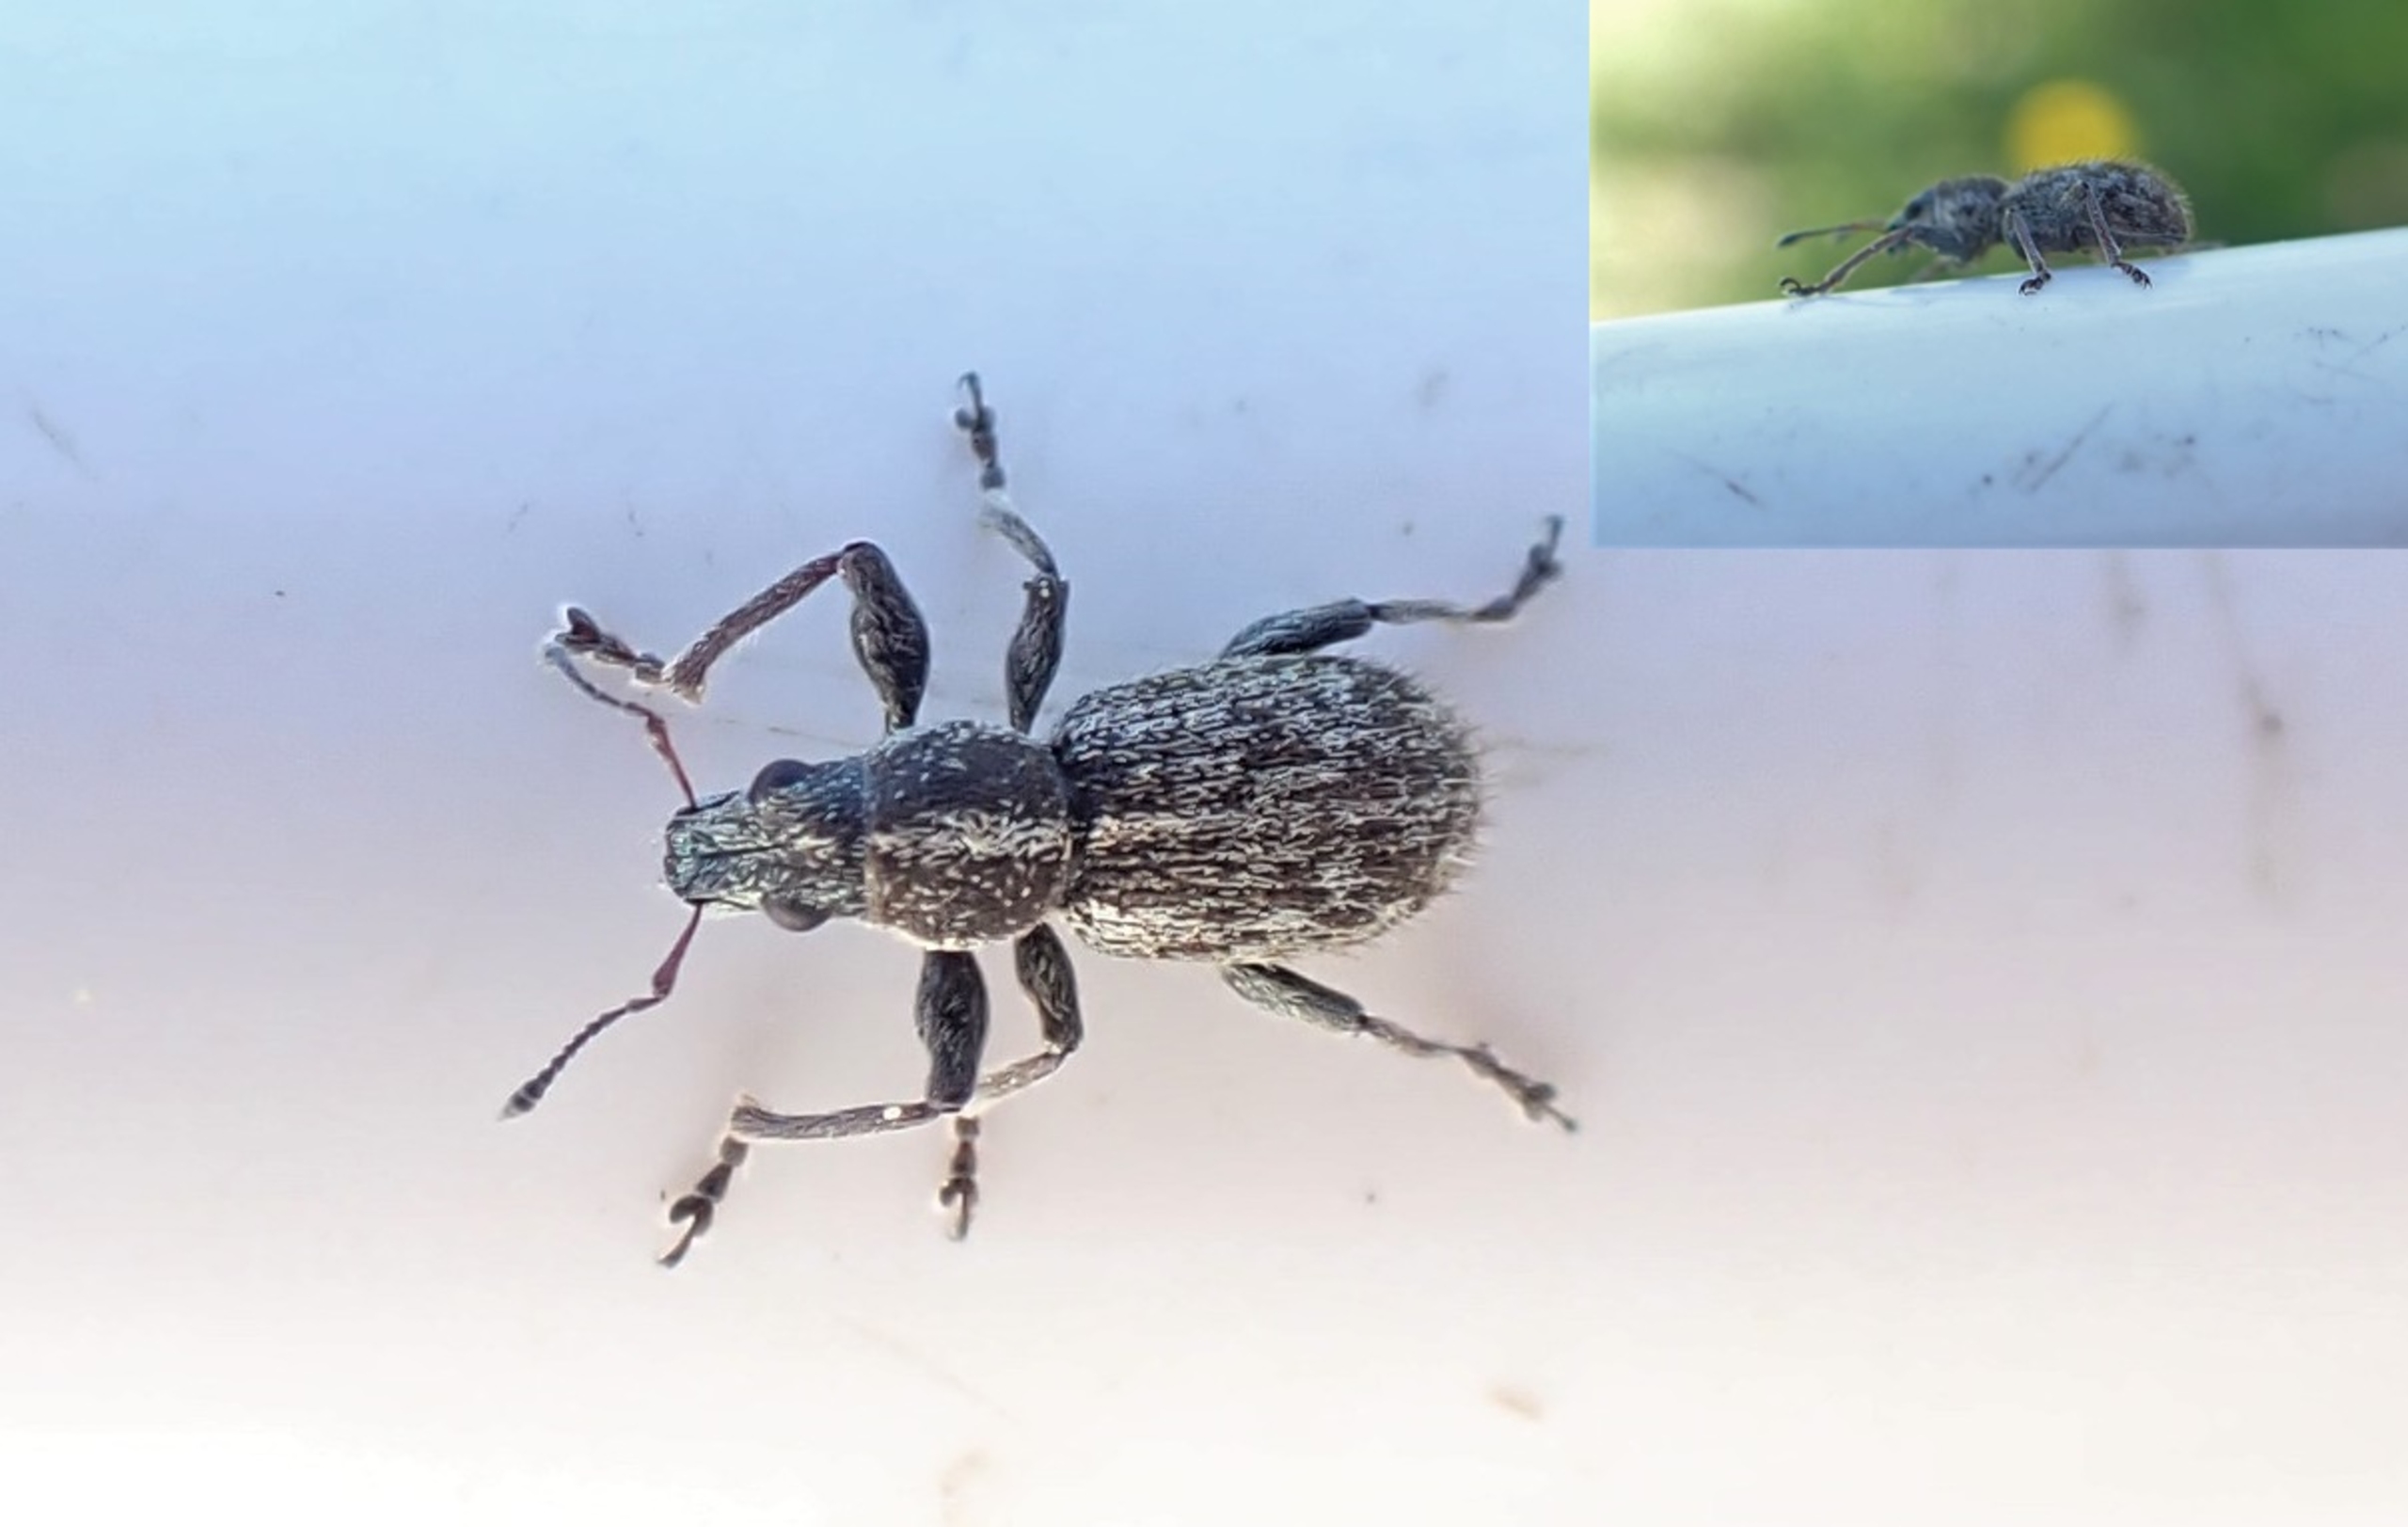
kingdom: Animalia
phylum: Arthropoda
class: Insecta
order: Coleoptera
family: Curculionidae
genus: Andrion
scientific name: Andrion regensteinense
